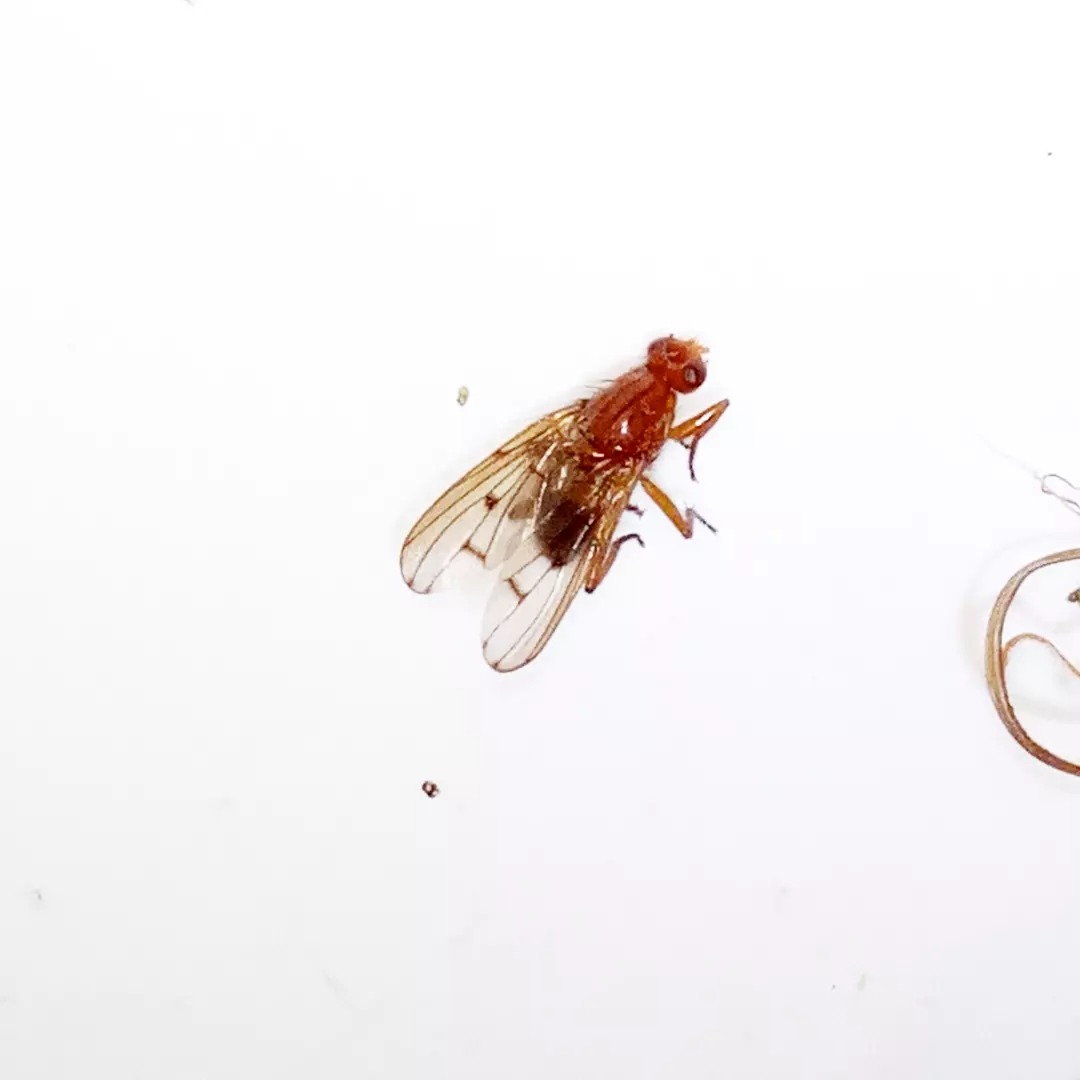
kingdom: Animalia
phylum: Arthropoda
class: Insecta
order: Diptera
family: Dryomyzidae
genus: Dryomyza
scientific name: Dryomyza anilis
